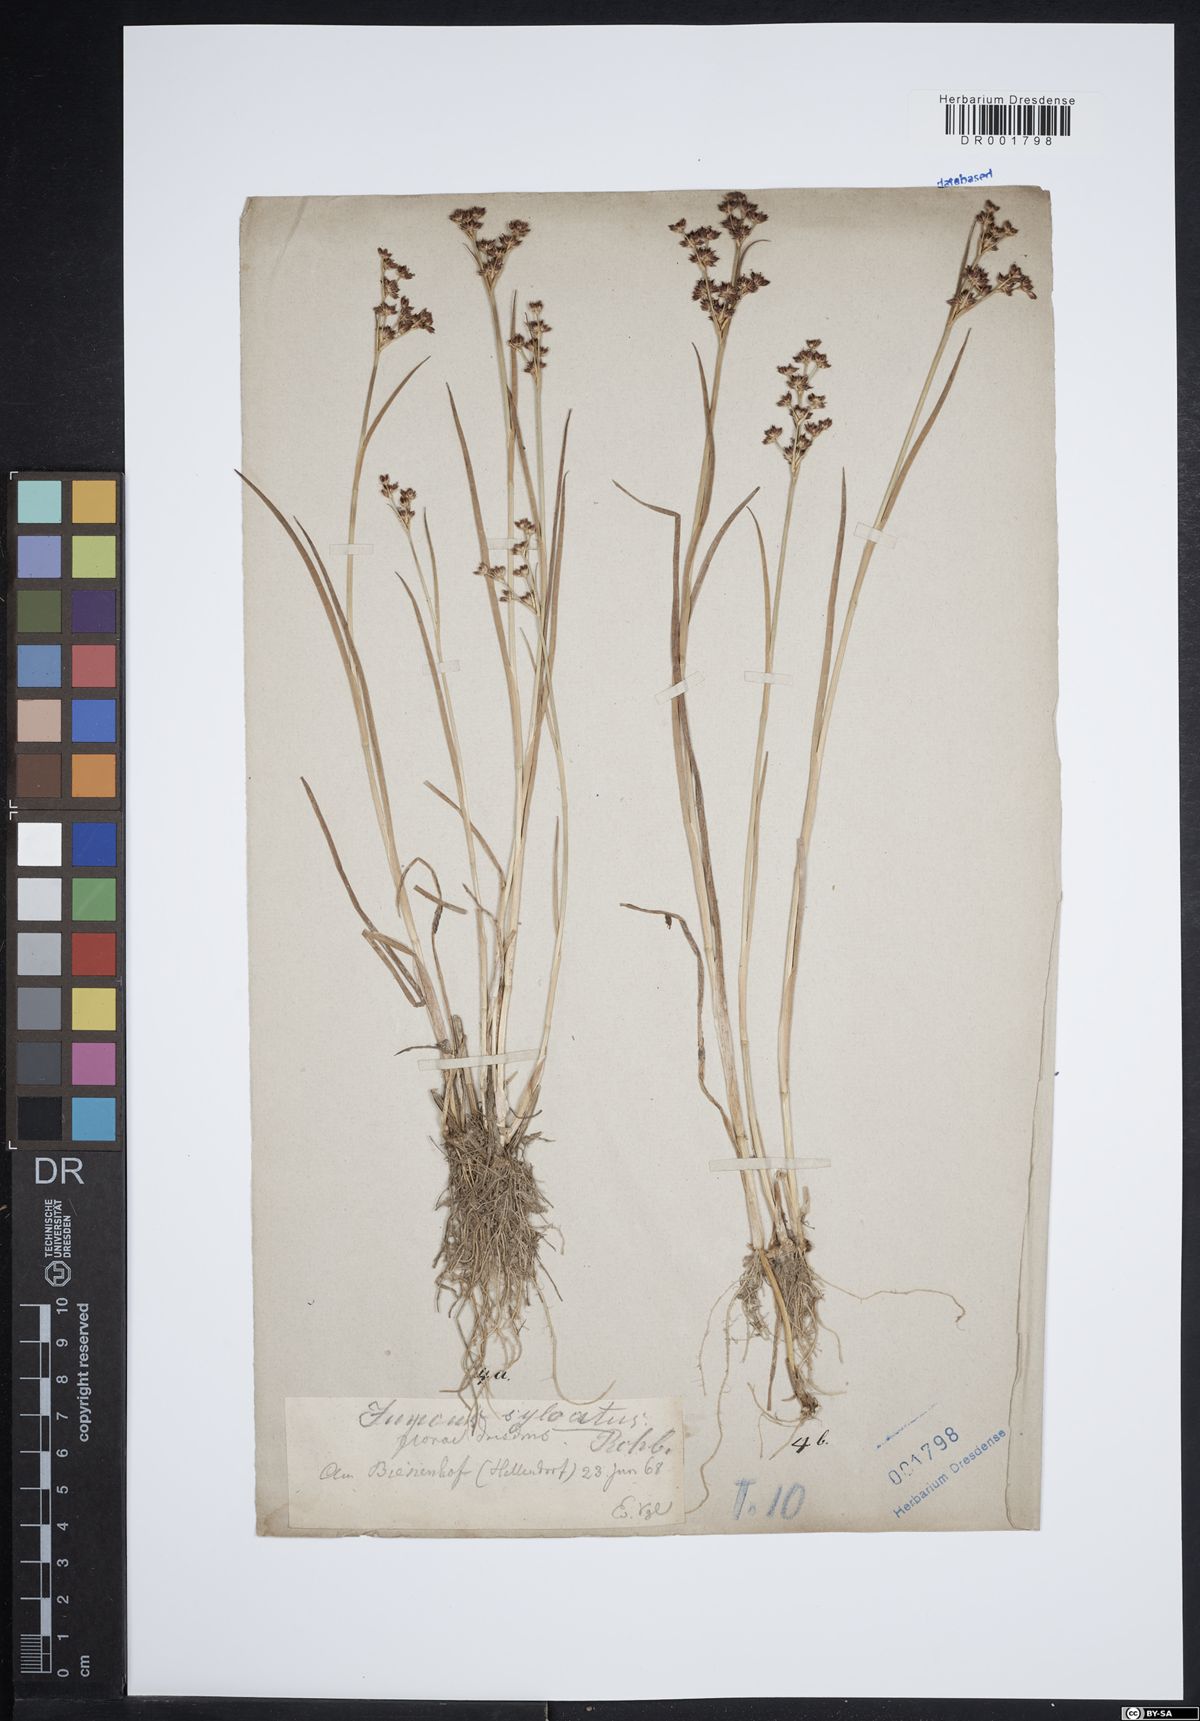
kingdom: Plantae
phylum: Tracheophyta
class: Liliopsida
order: Poales
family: Juncaceae
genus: Juncus
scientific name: Juncus acutiflorus
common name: Sharp-flowered rush
